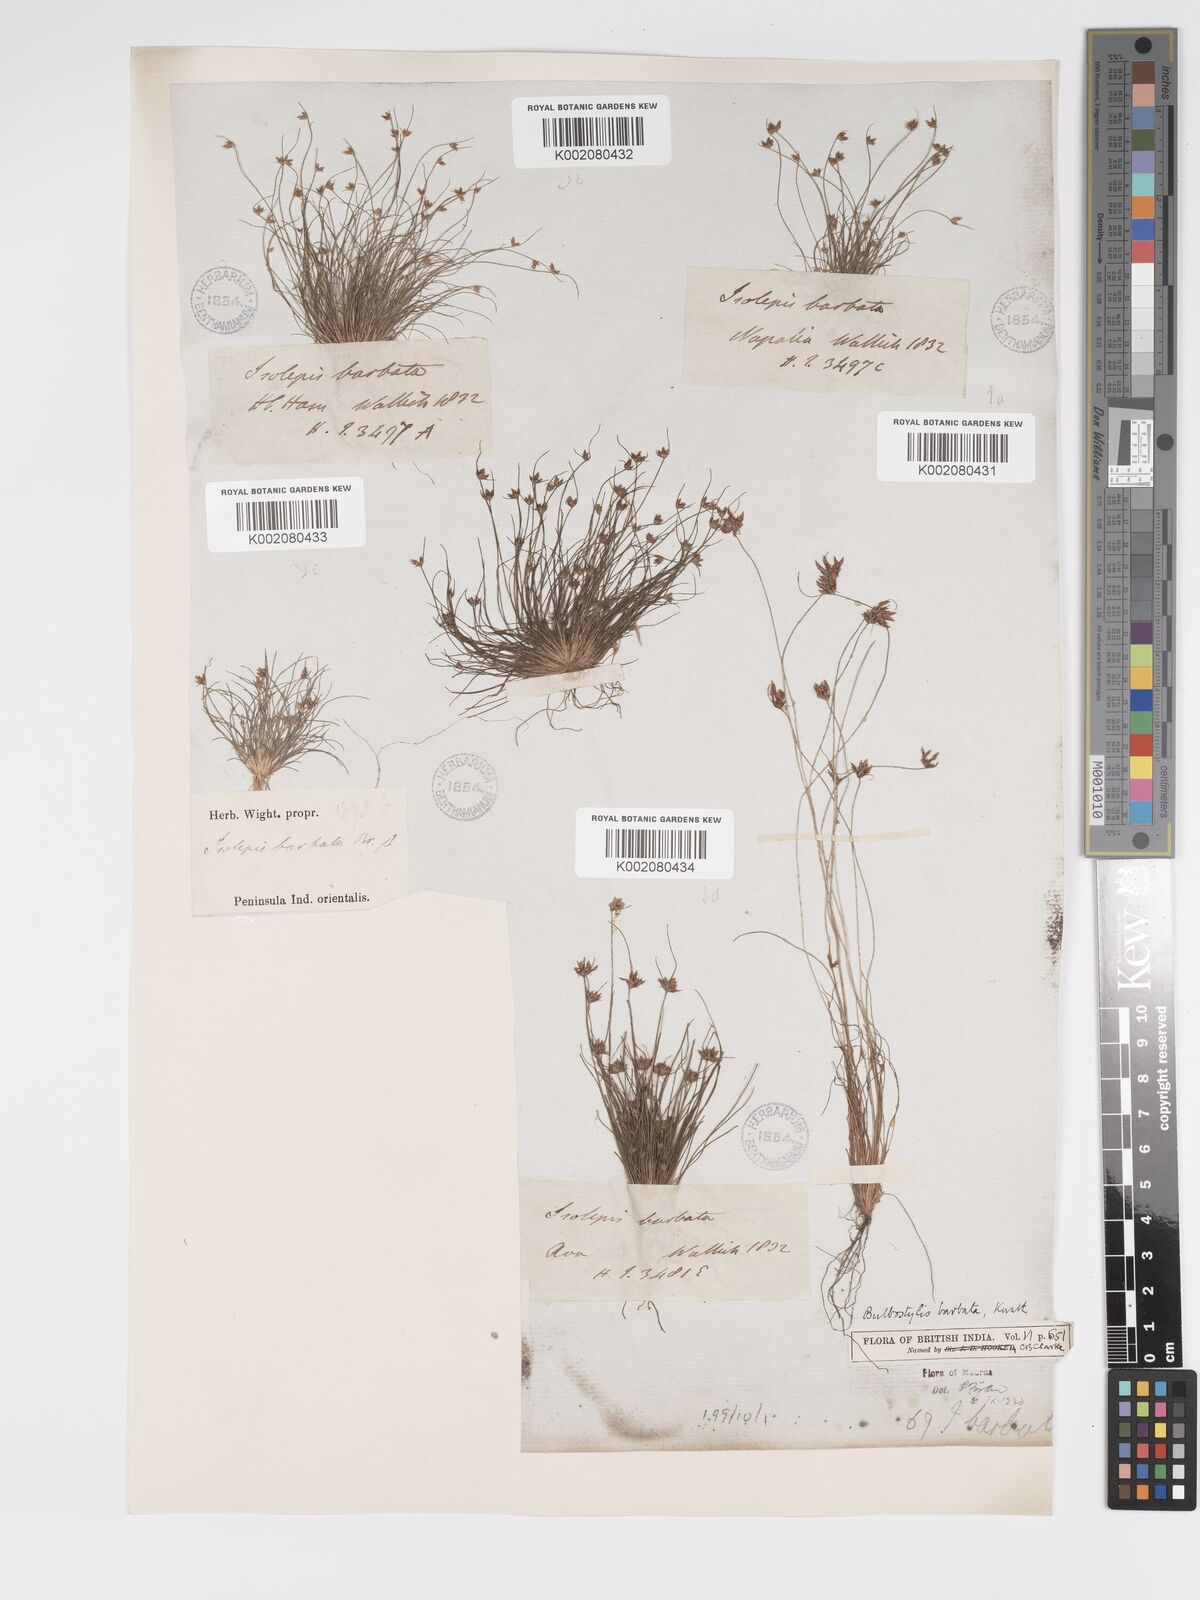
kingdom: Plantae
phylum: Tracheophyta
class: Liliopsida
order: Poales
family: Cyperaceae
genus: Bulbostylis
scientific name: Bulbostylis barbata
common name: Watergrass
